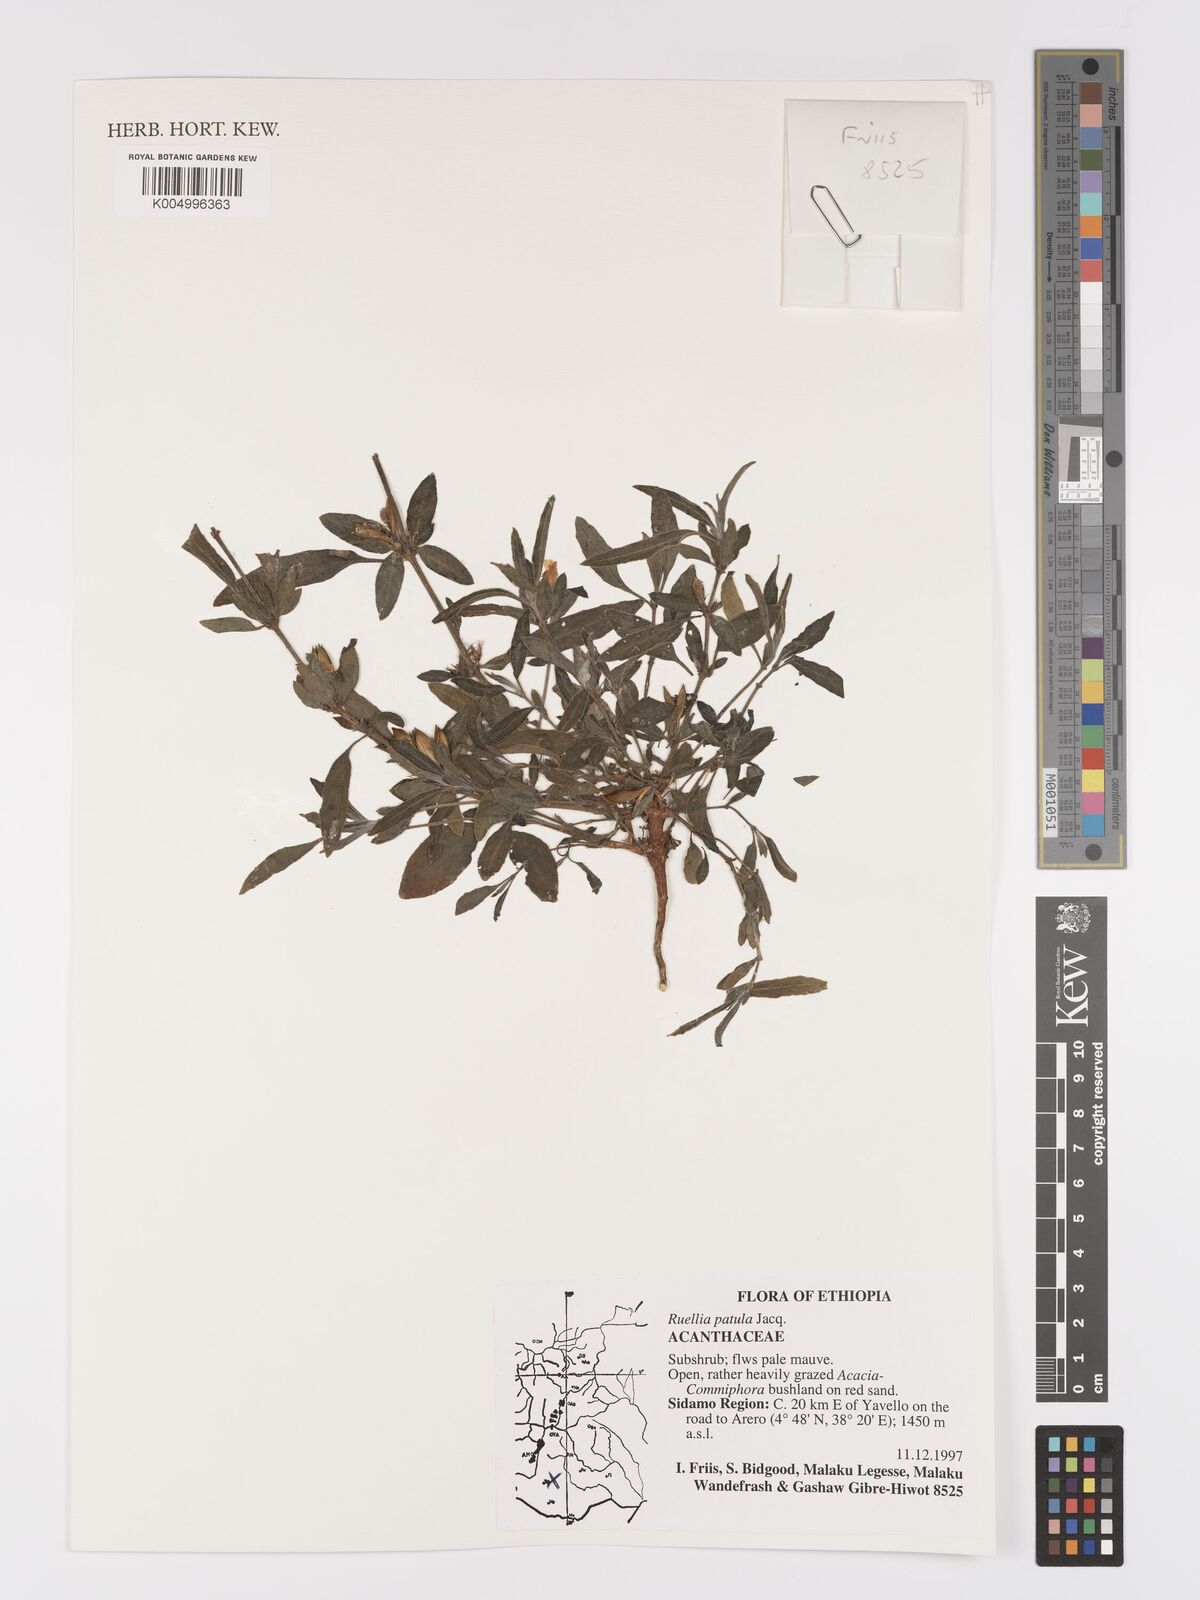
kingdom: Plantae
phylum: Tracheophyta
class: Magnoliopsida
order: Lamiales
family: Acanthaceae
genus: Ruellia
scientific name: Ruellia patula
